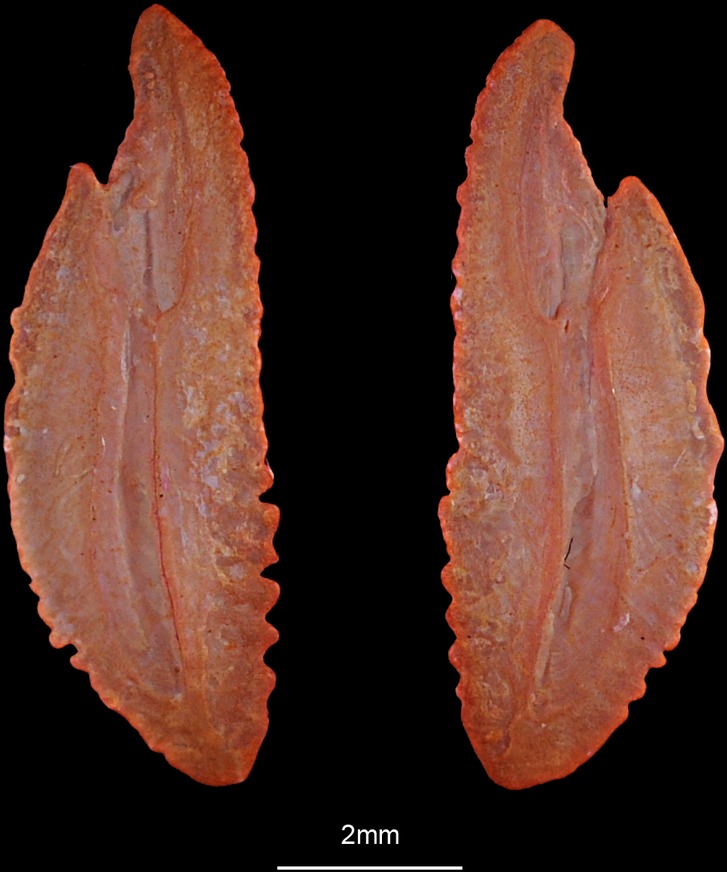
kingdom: Animalia
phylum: Chordata
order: Perciformes
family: Stromateidae
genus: Stromateus
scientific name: Stromateus fiatola
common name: Blue butterfish
